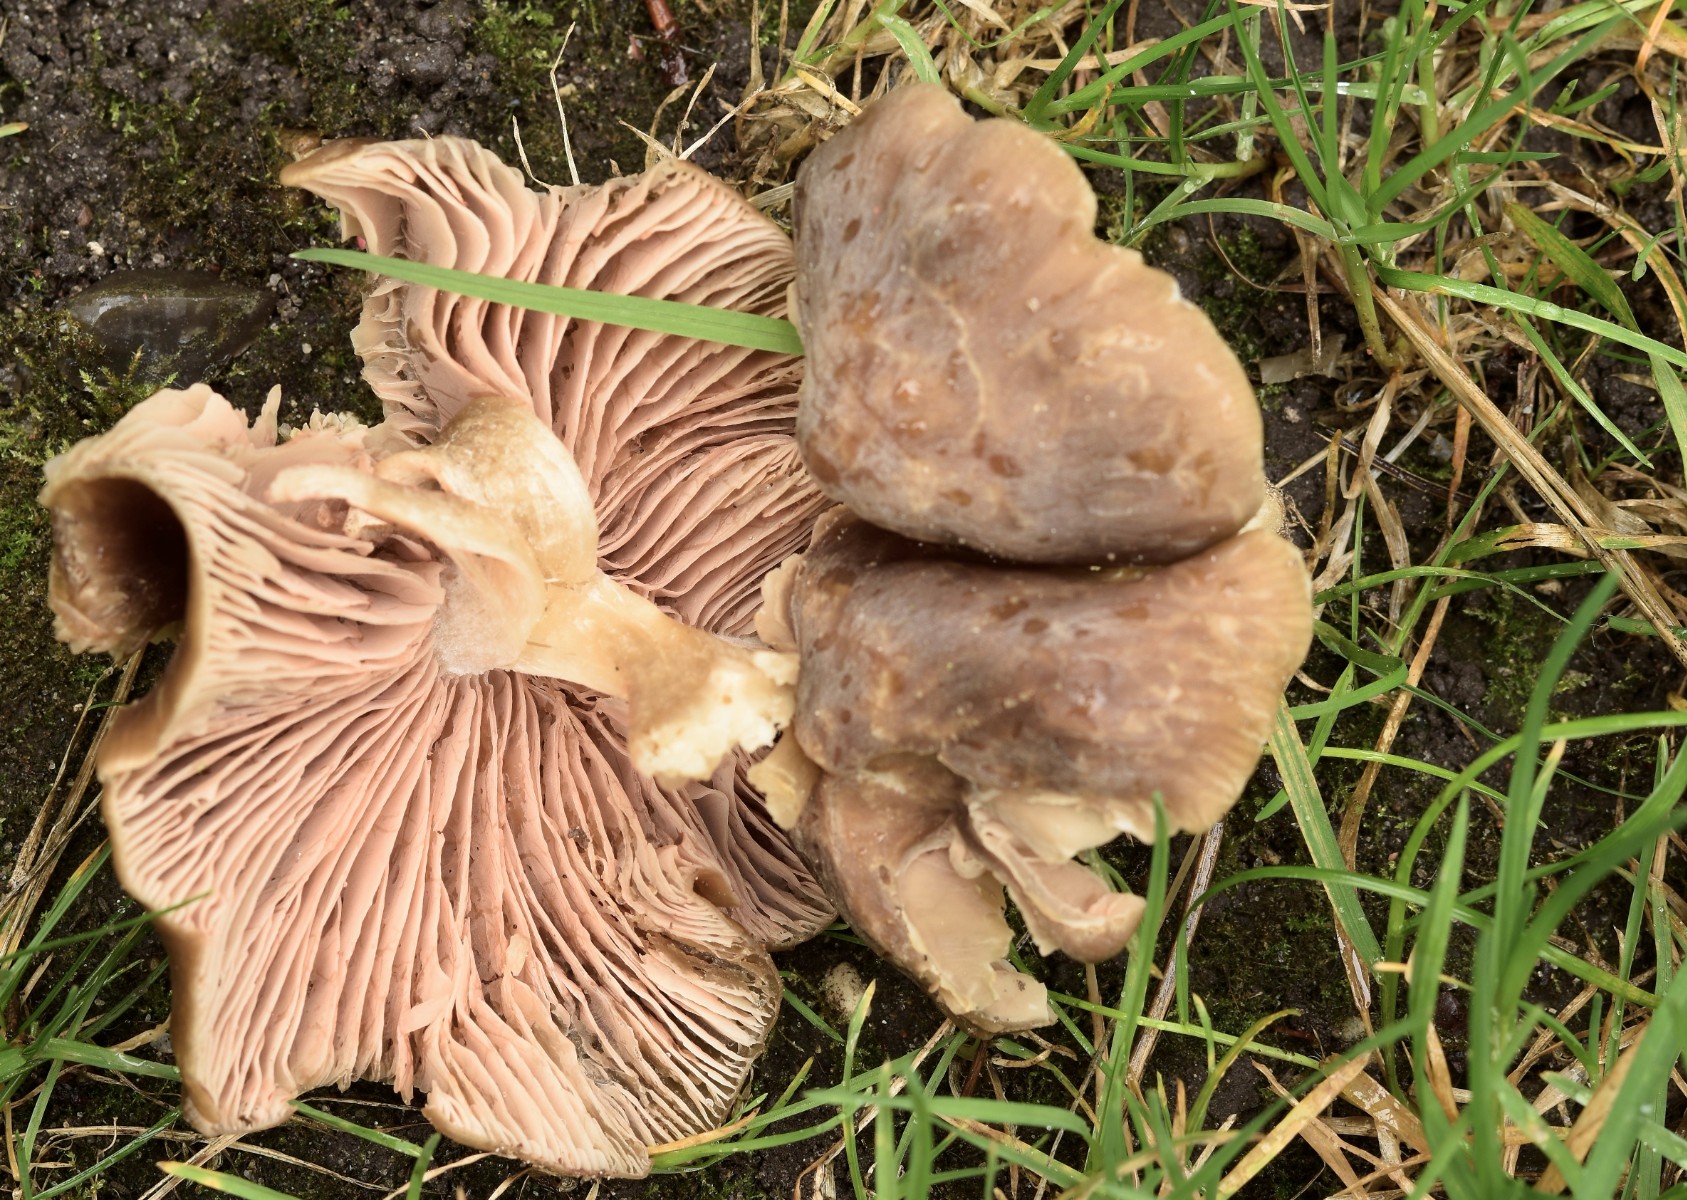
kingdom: Fungi
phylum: Basidiomycota
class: Agaricomycetes
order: Agaricales
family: Entolomataceae
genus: Entoloma
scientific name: Entoloma
